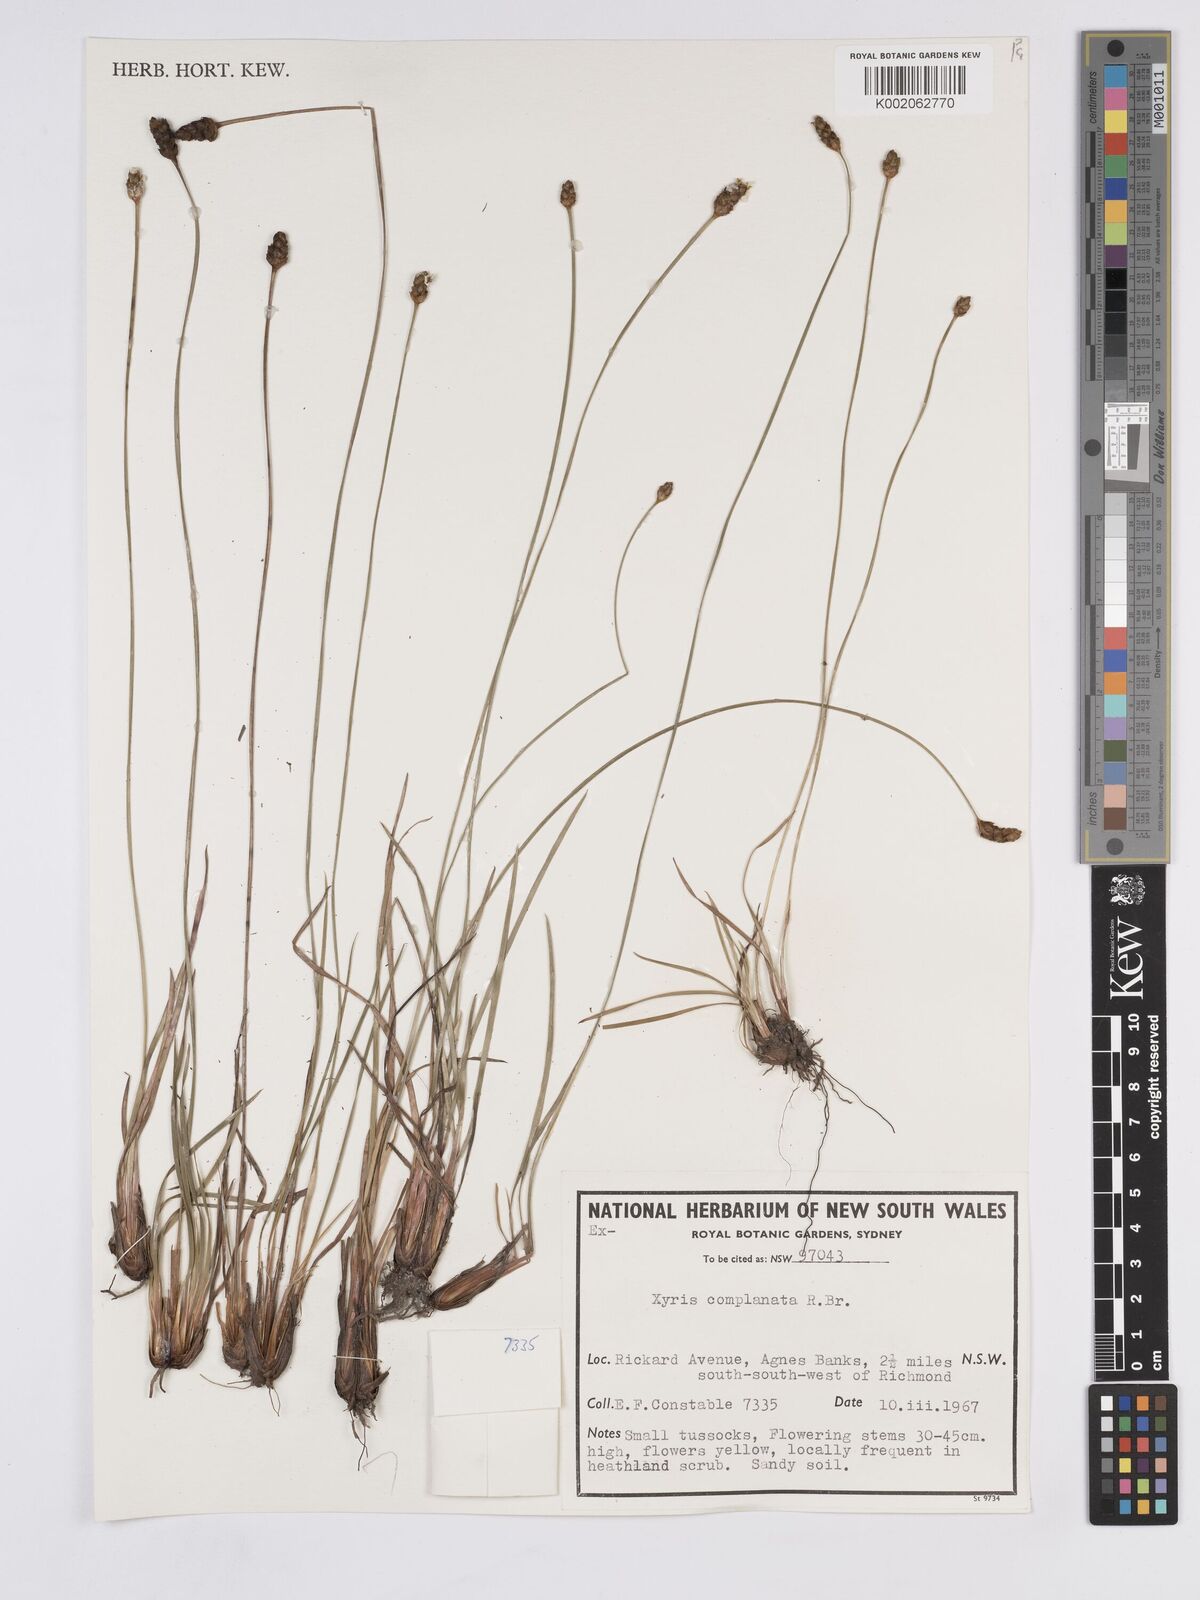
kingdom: Plantae
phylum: Tracheophyta
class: Liliopsida
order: Poales
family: Xyridaceae
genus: Xyris
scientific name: Xyris complanata
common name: Hawai'i yelloweyed grass
